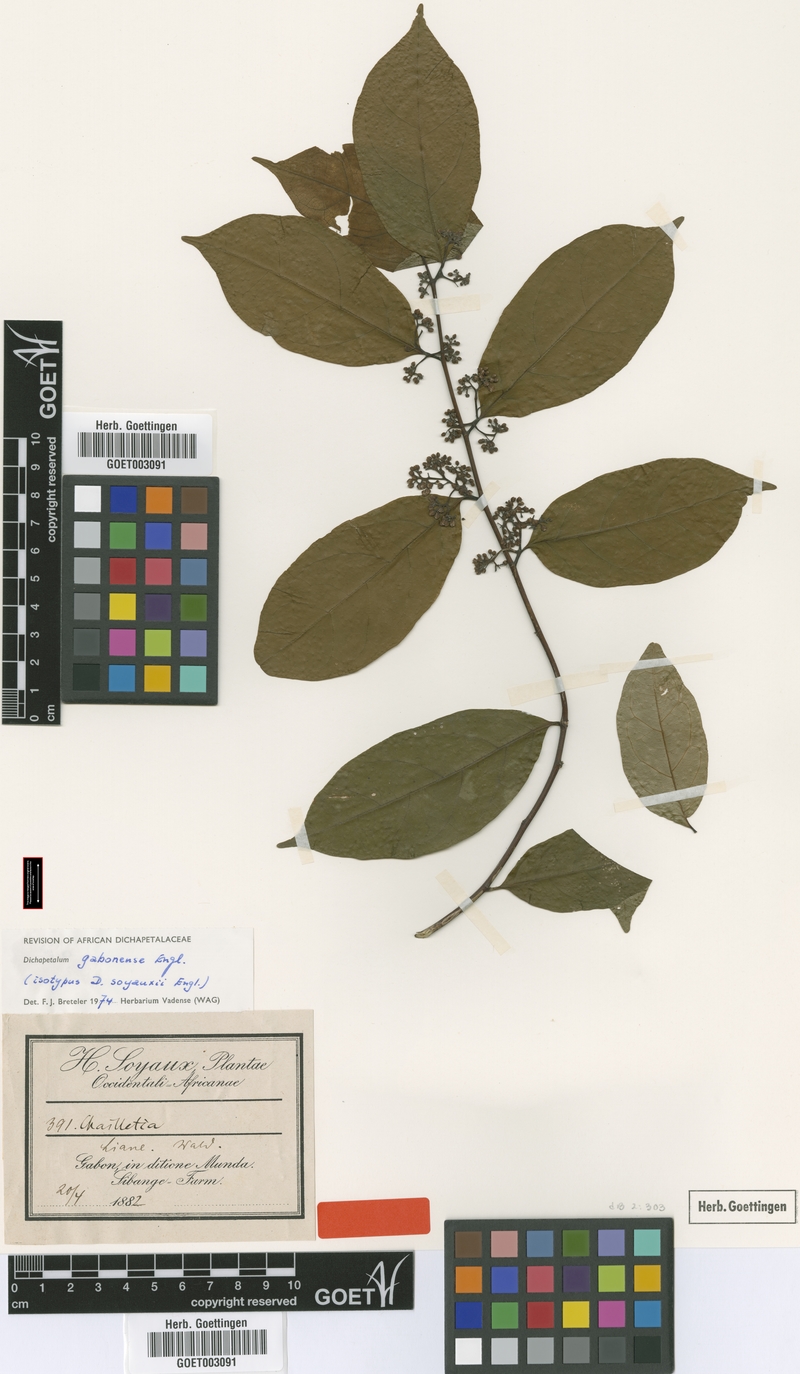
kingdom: Plantae
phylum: Tracheophyta
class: Magnoliopsida
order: Malpighiales
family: Dichapetalaceae
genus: Dichapetalum
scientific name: Dichapetalum gabonense
